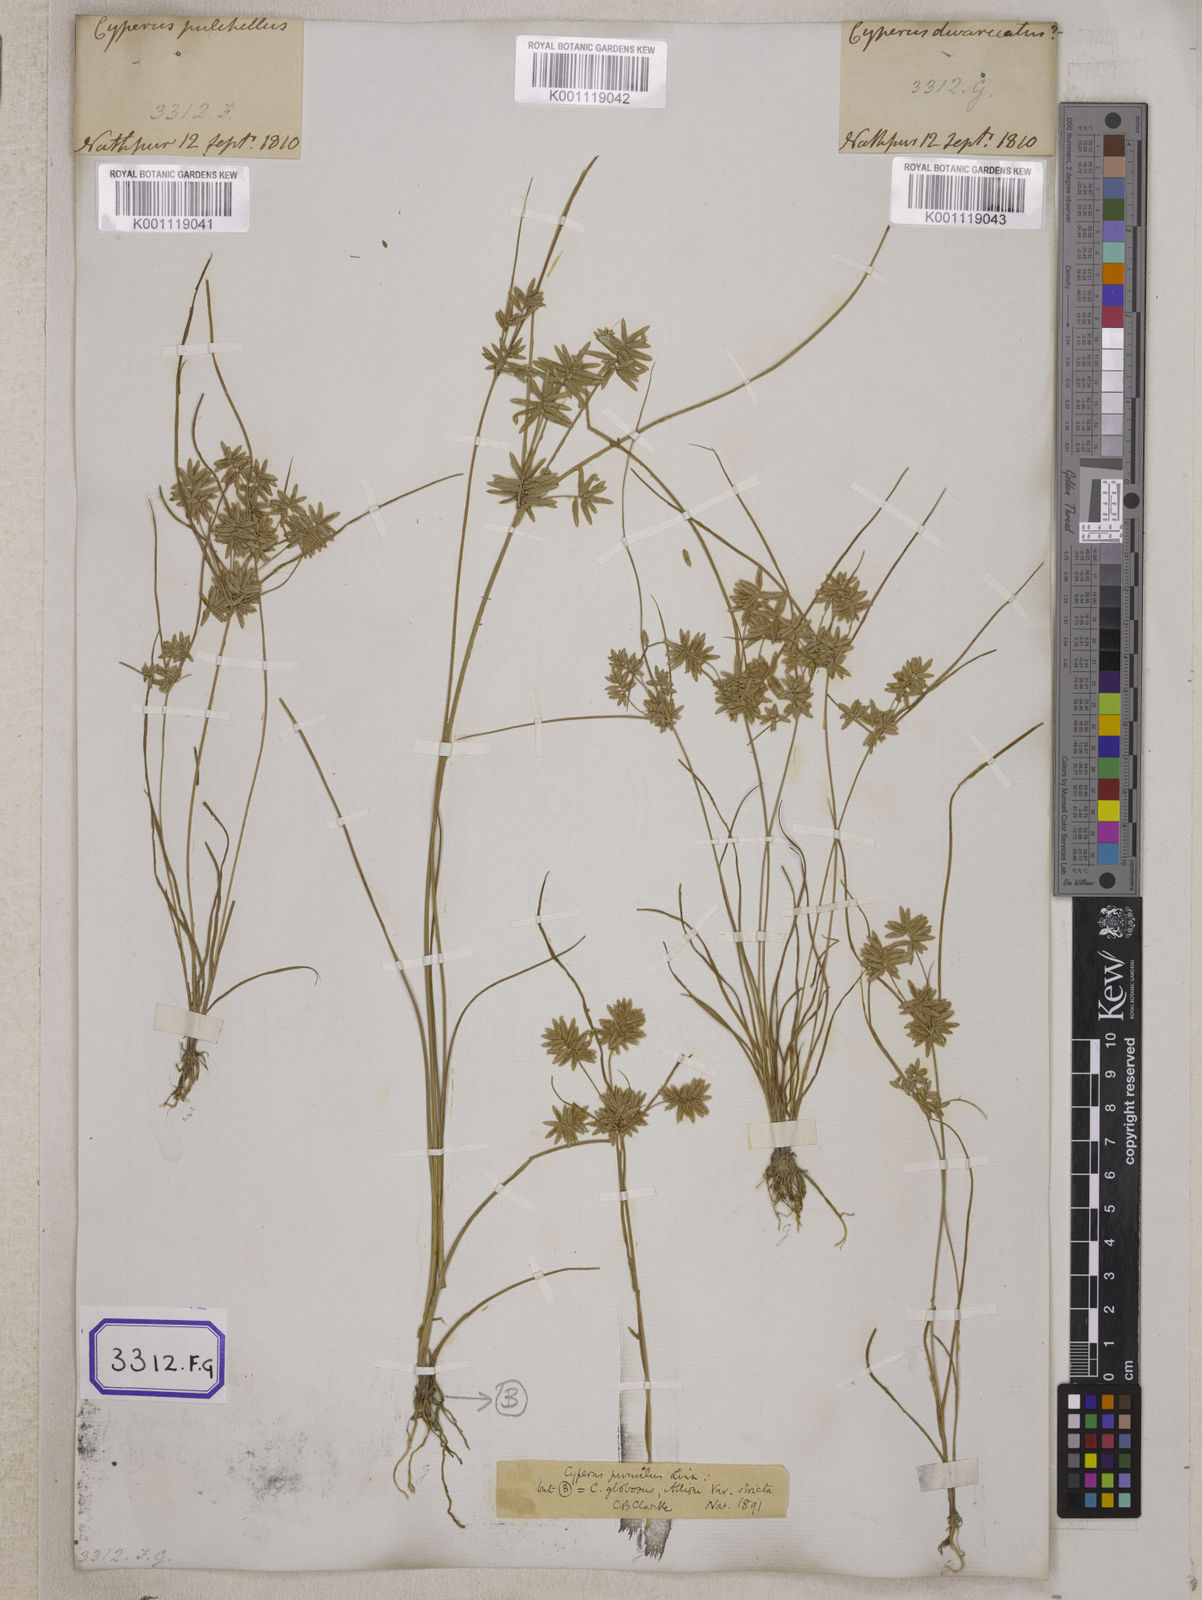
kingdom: Plantae
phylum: Tracheophyta
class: Liliopsida
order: Poales
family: Cyperaceae
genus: Cyperus
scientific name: Cyperus
